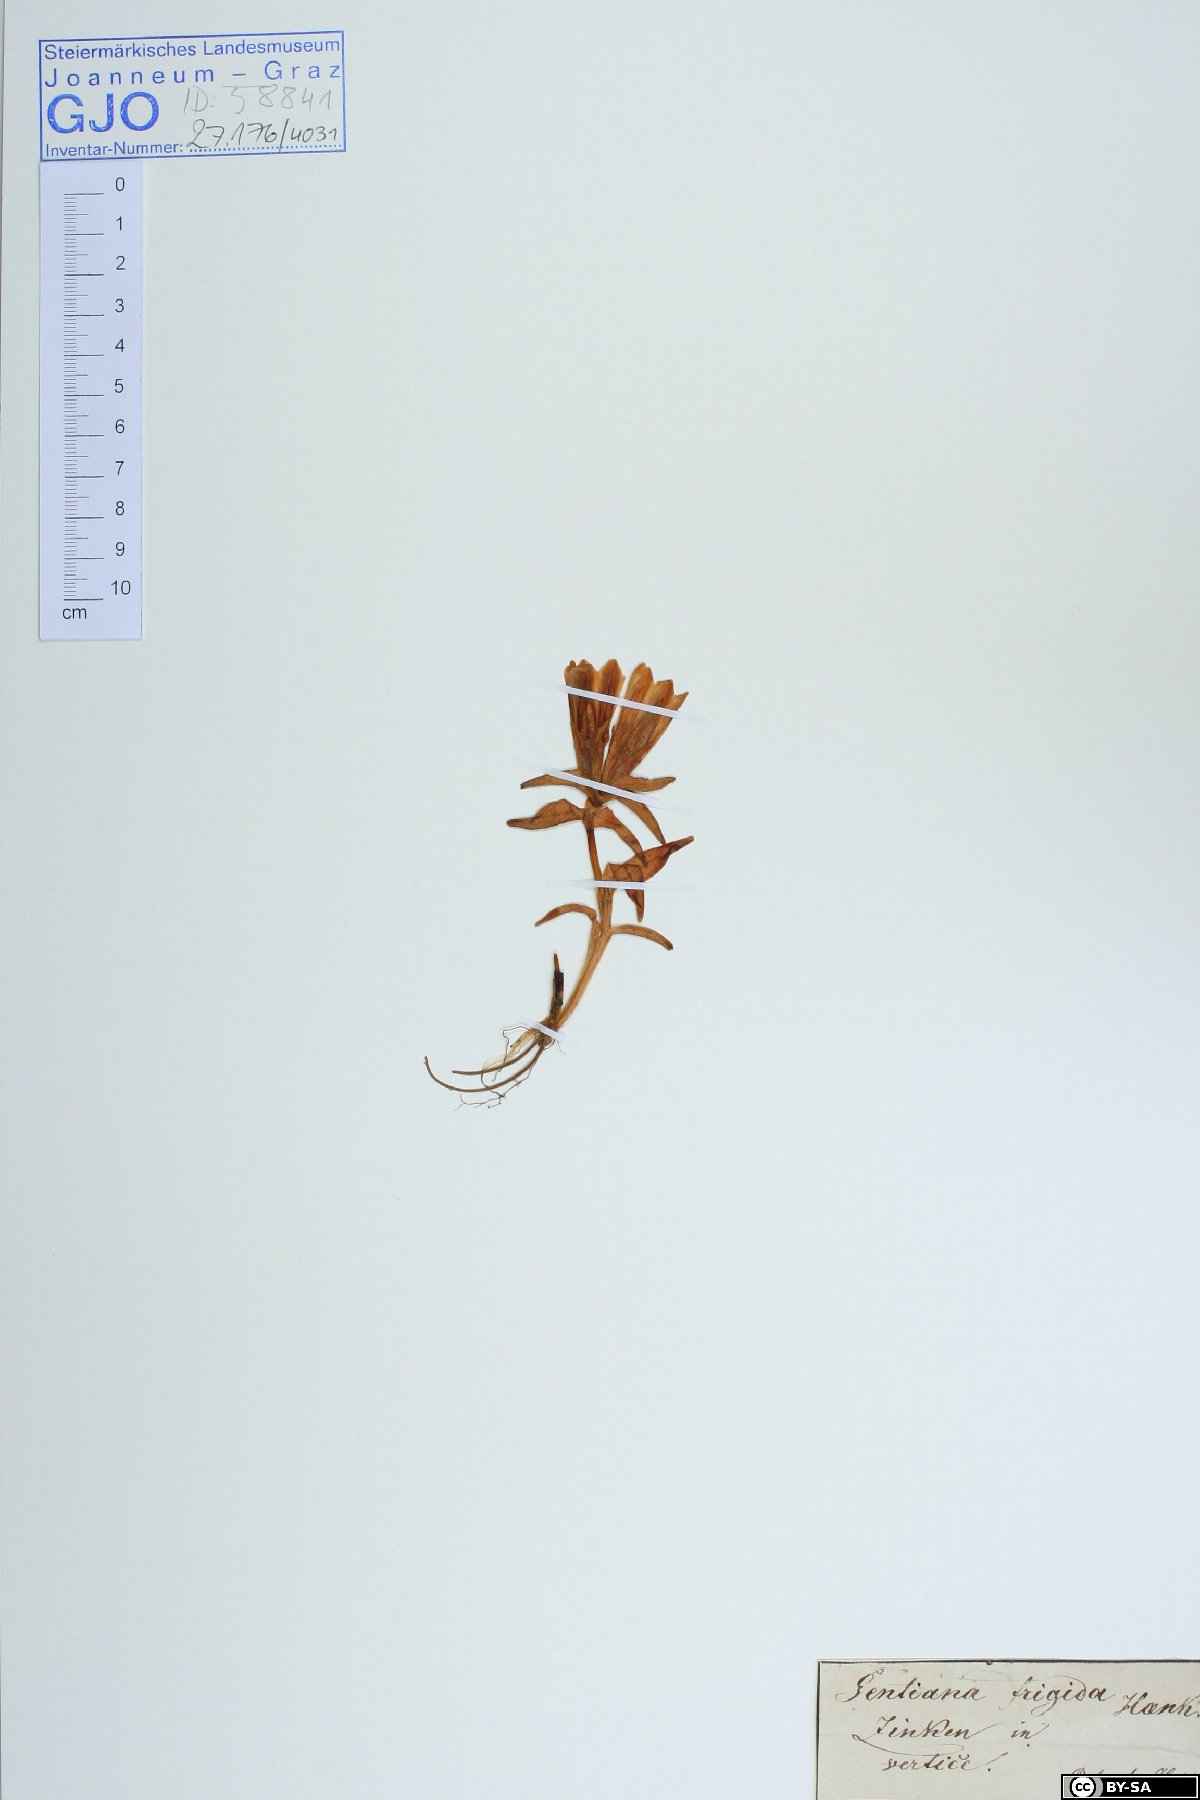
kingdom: Plantae
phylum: Tracheophyta
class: Magnoliopsida
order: Gentianales
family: Gentianaceae
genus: Gentiana
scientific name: Gentiana frigida
